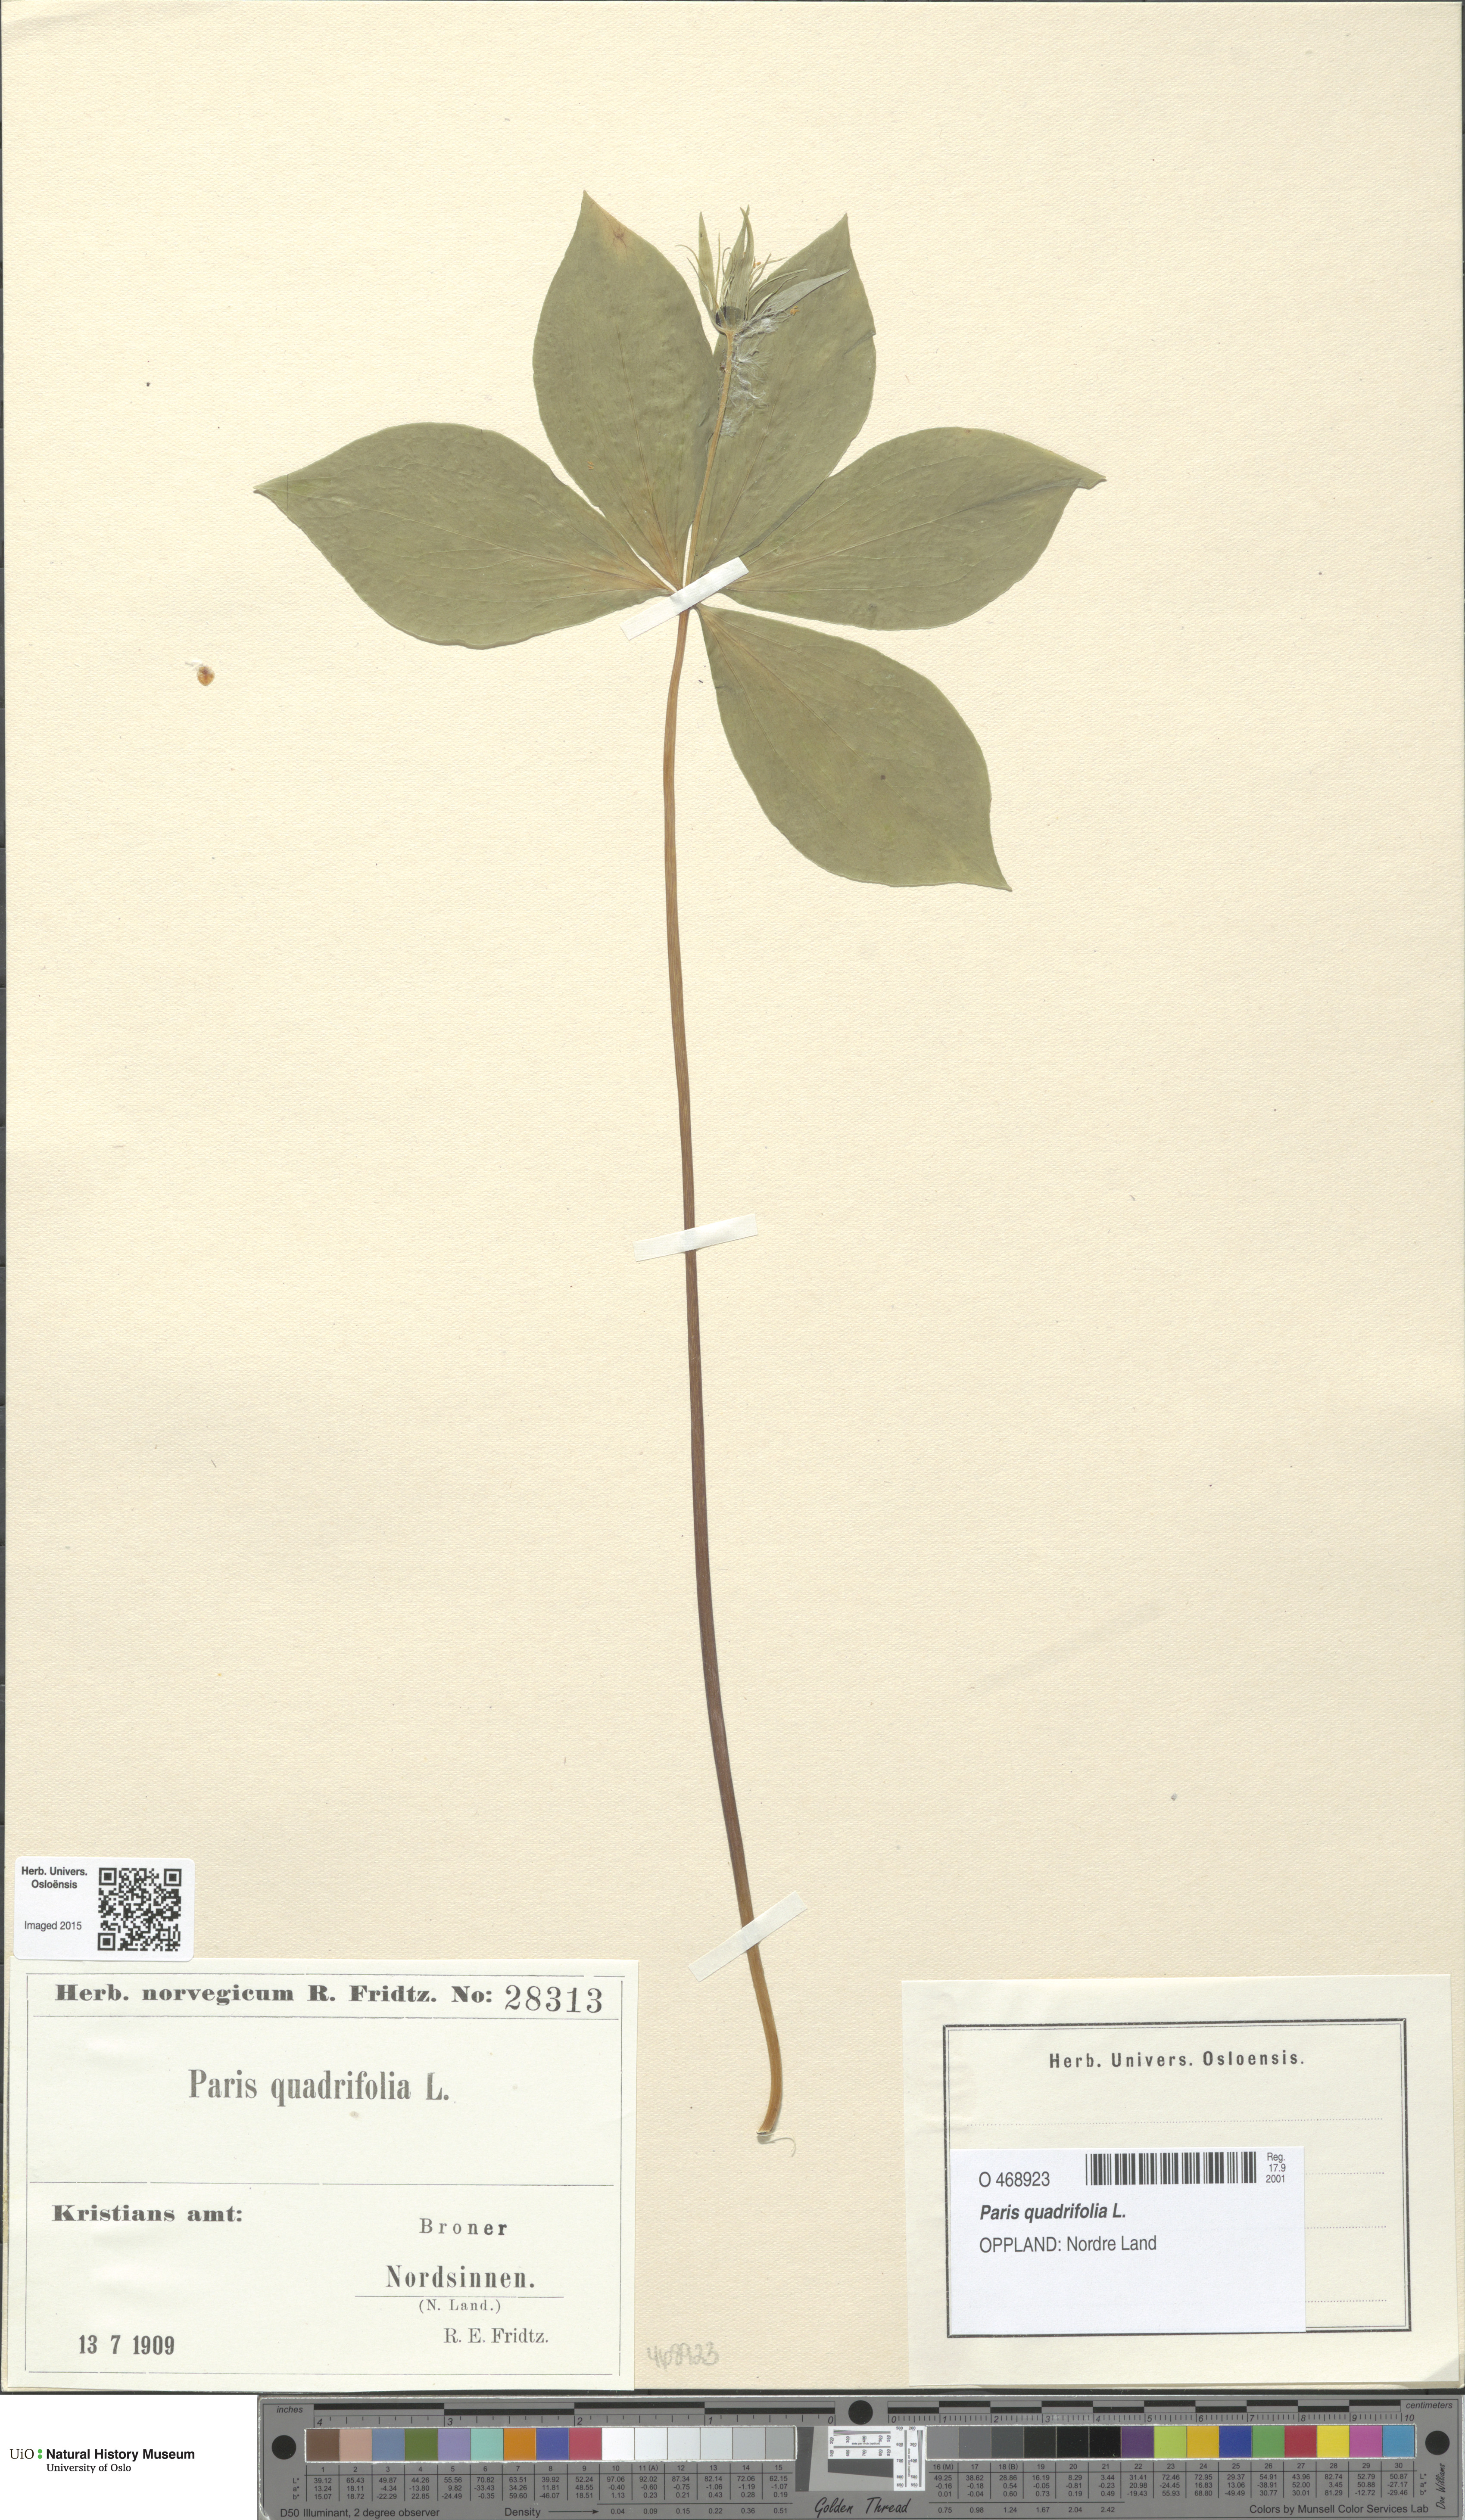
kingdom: Plantae
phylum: Tracheophyta
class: Liliopsida
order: Liliales
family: Melanthiaceae
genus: Paris
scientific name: Paris quadrifolia
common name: Herb-paris
